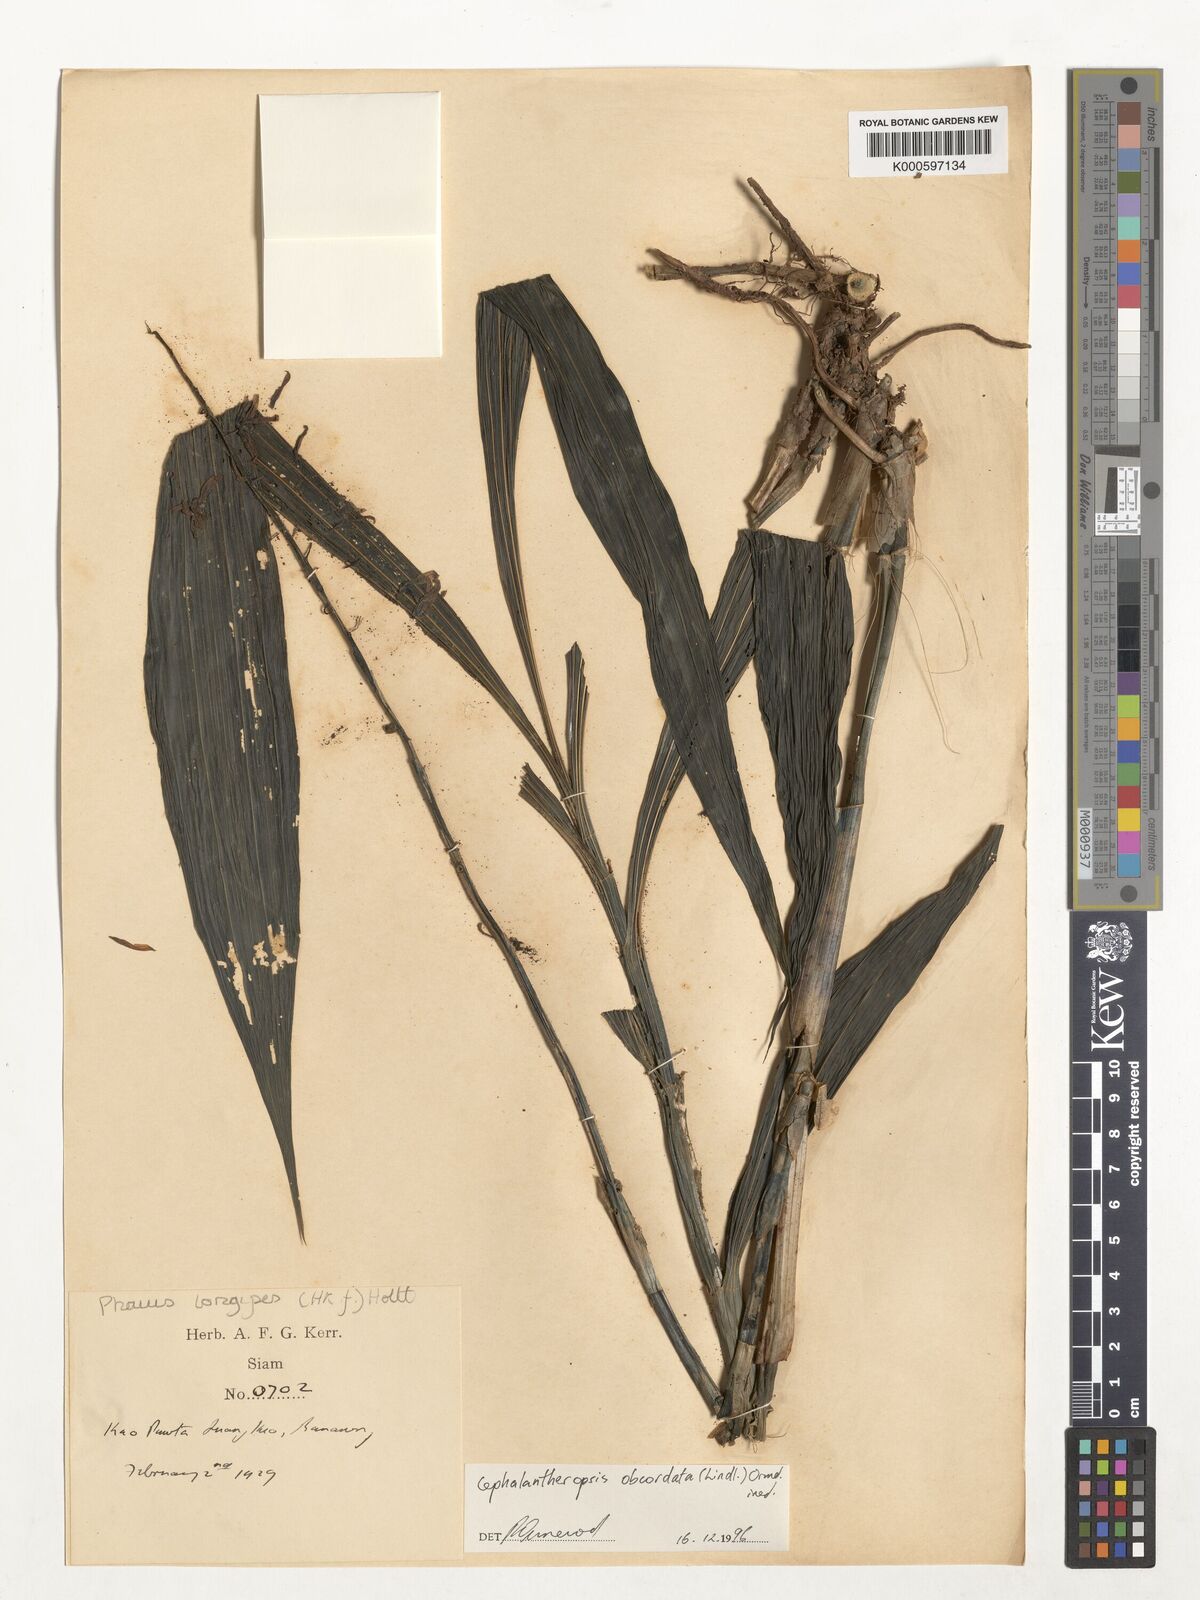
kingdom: Plantae
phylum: Tracheophyta
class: Liliopsida
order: Asparagales
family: Orchidaceae
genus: Calanthe
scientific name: Calanthe obcordata
